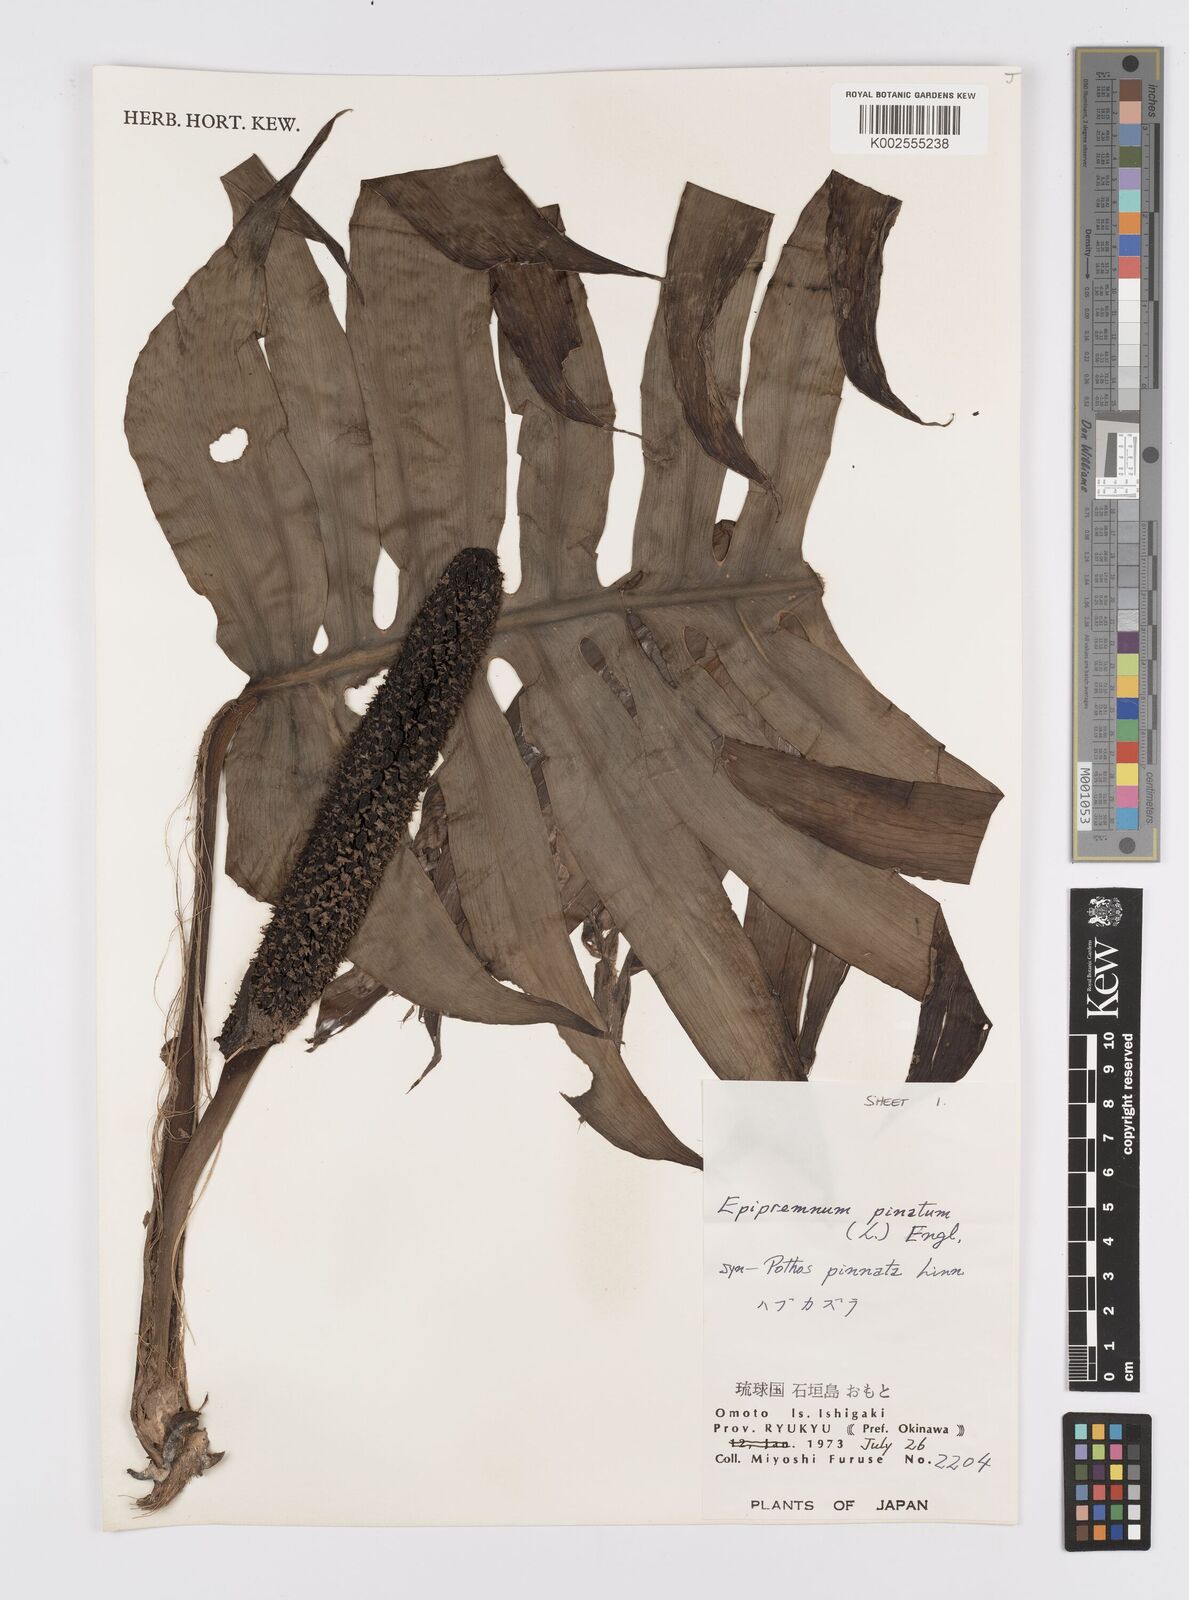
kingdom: Plantae
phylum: Tracheophyta
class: Liliopsida
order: Alismatales
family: Araceae
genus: Epipremnum
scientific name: Epipremnum pinnatum
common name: Centipede tongavine
